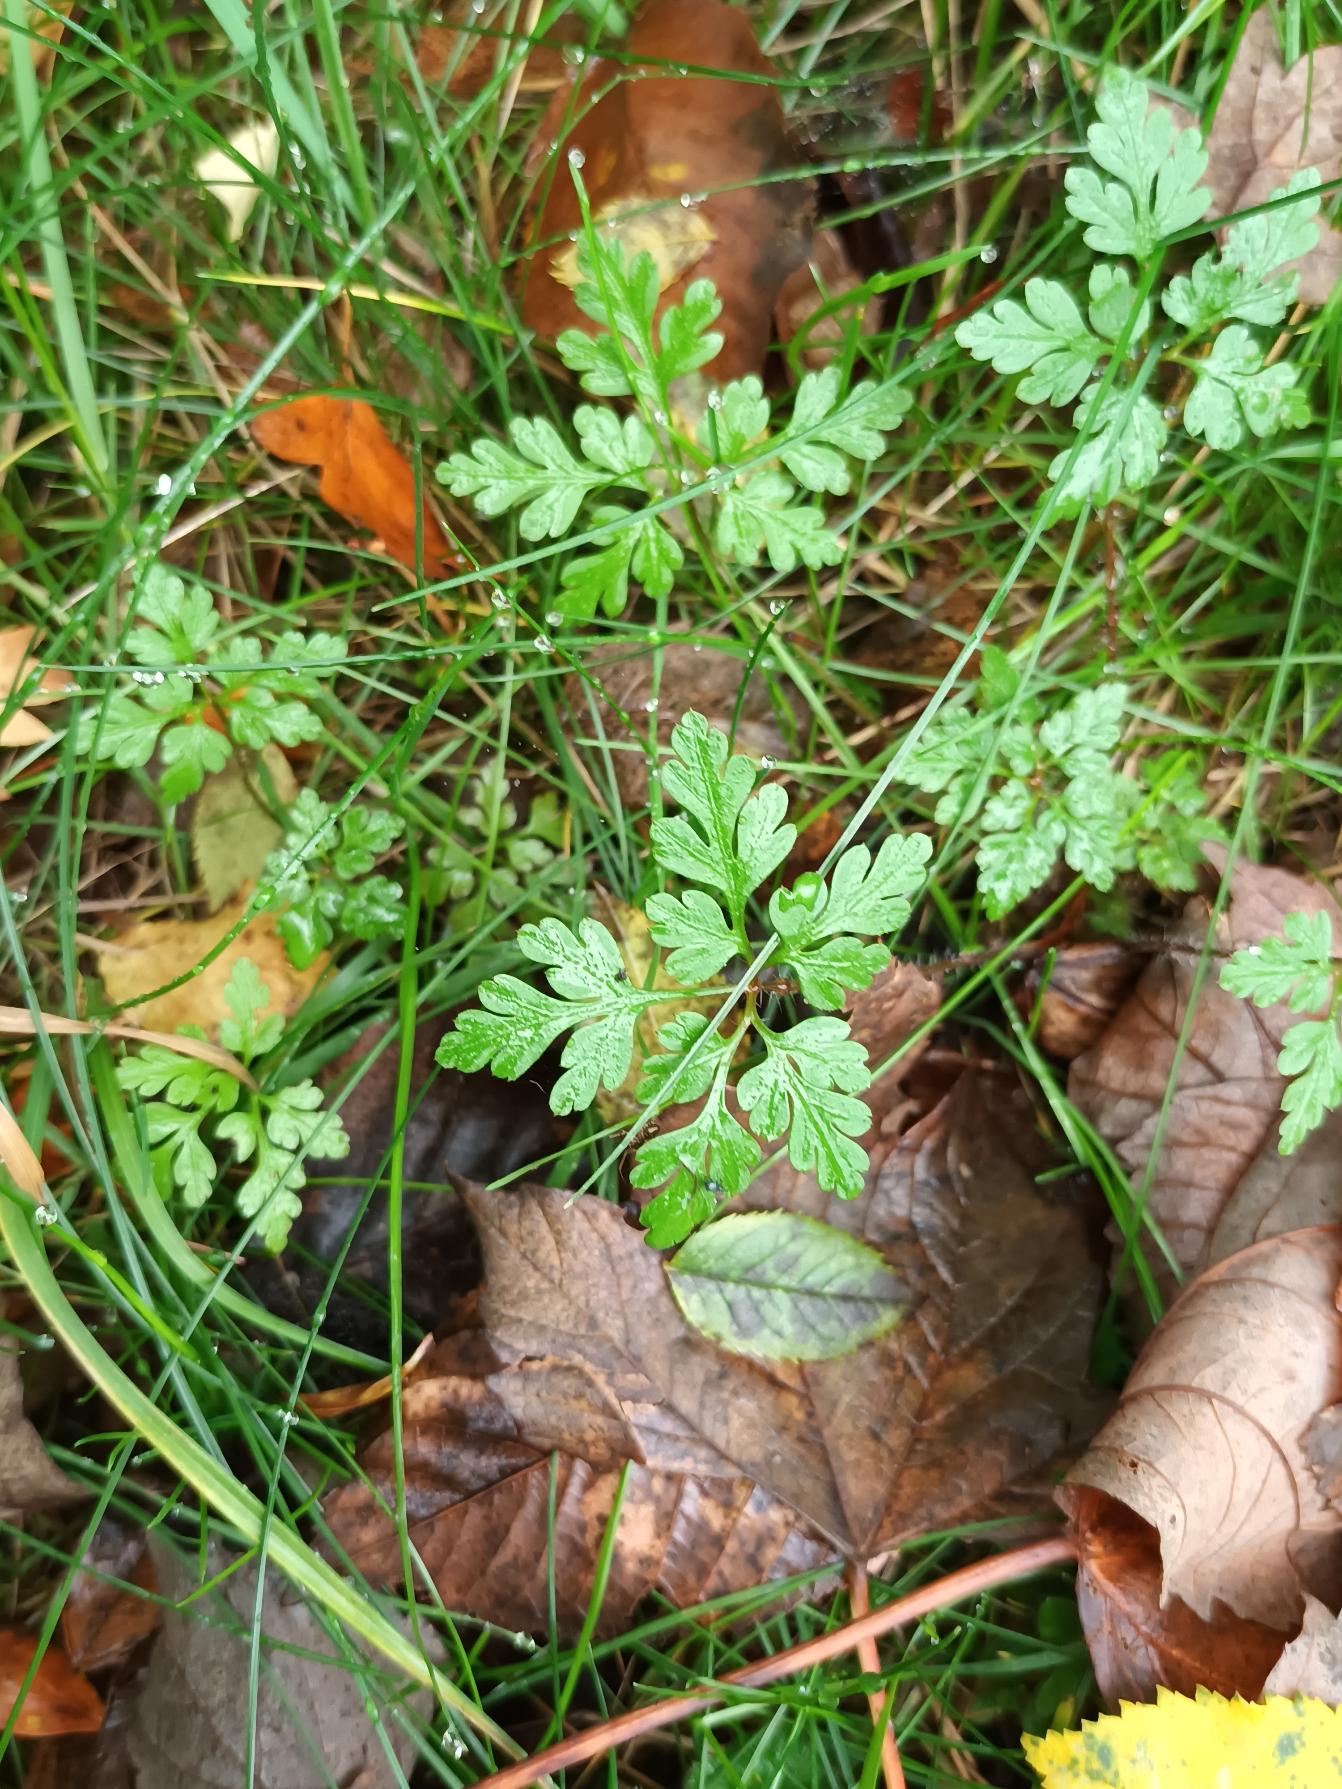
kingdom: Plantae
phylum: Tracheophyta
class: Magnoliopsida
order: Geraniales
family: Geraniaceae
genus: Geranium
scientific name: Geranium robertianum
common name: Stinkende storkenæb
